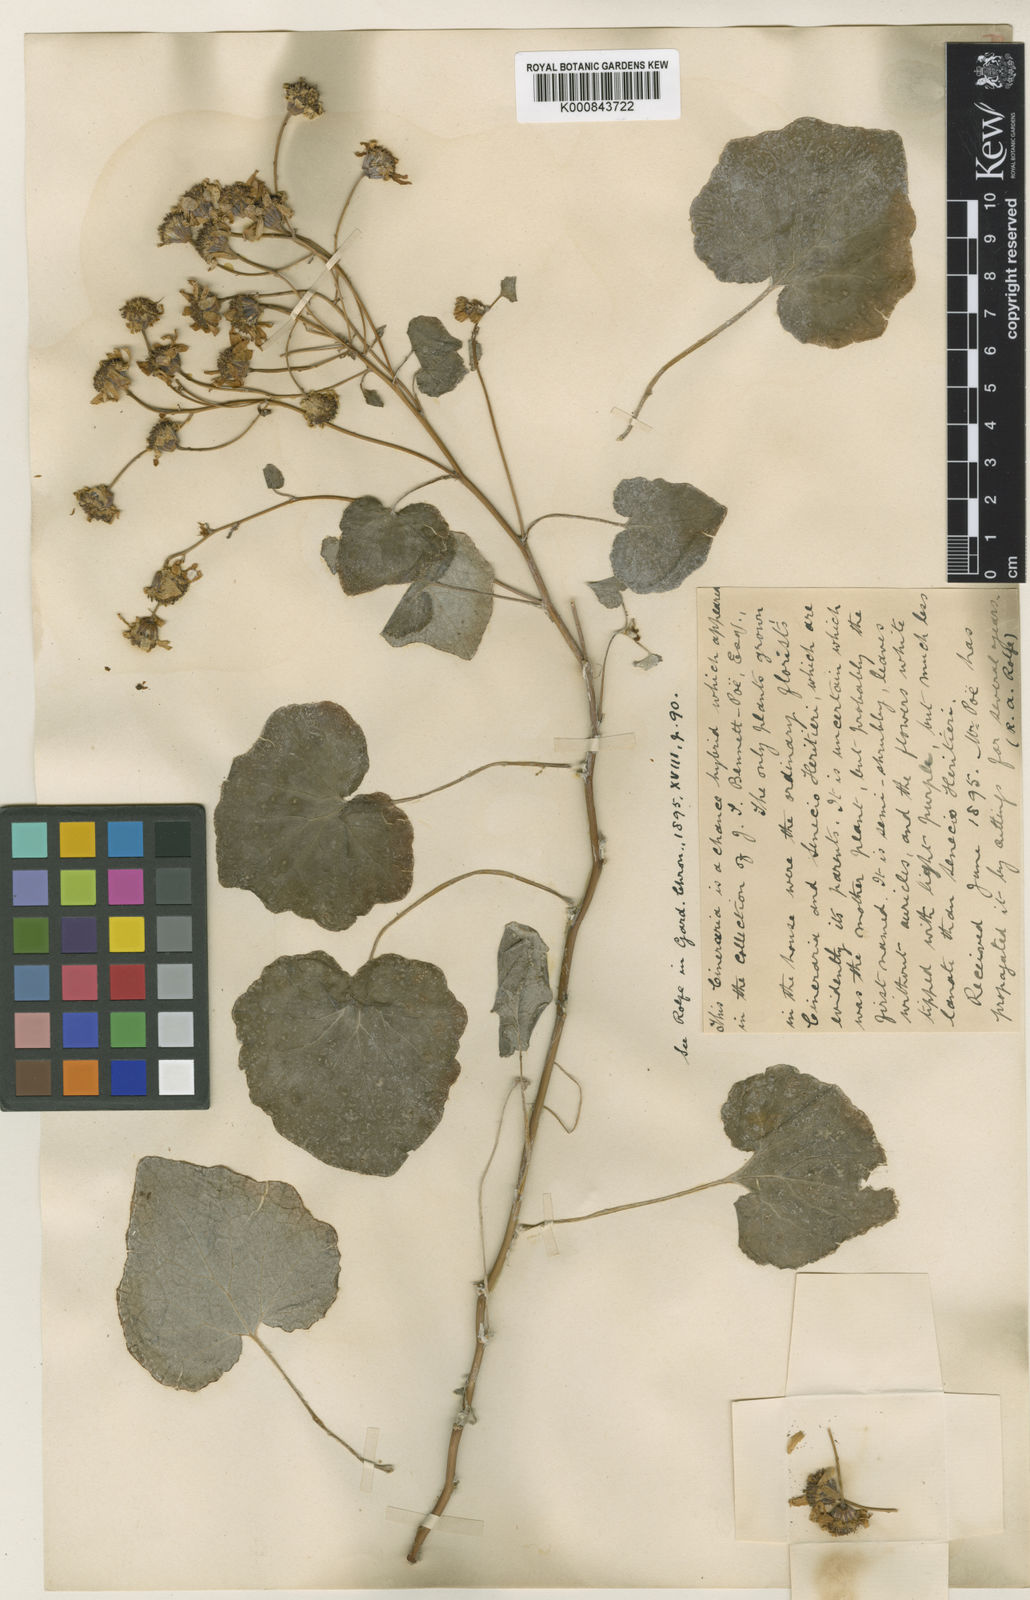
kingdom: Plantae
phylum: Tracheophyta
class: Magnoliopsida
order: Asterales
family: Asteraceae
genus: Senecio
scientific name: Senecio
